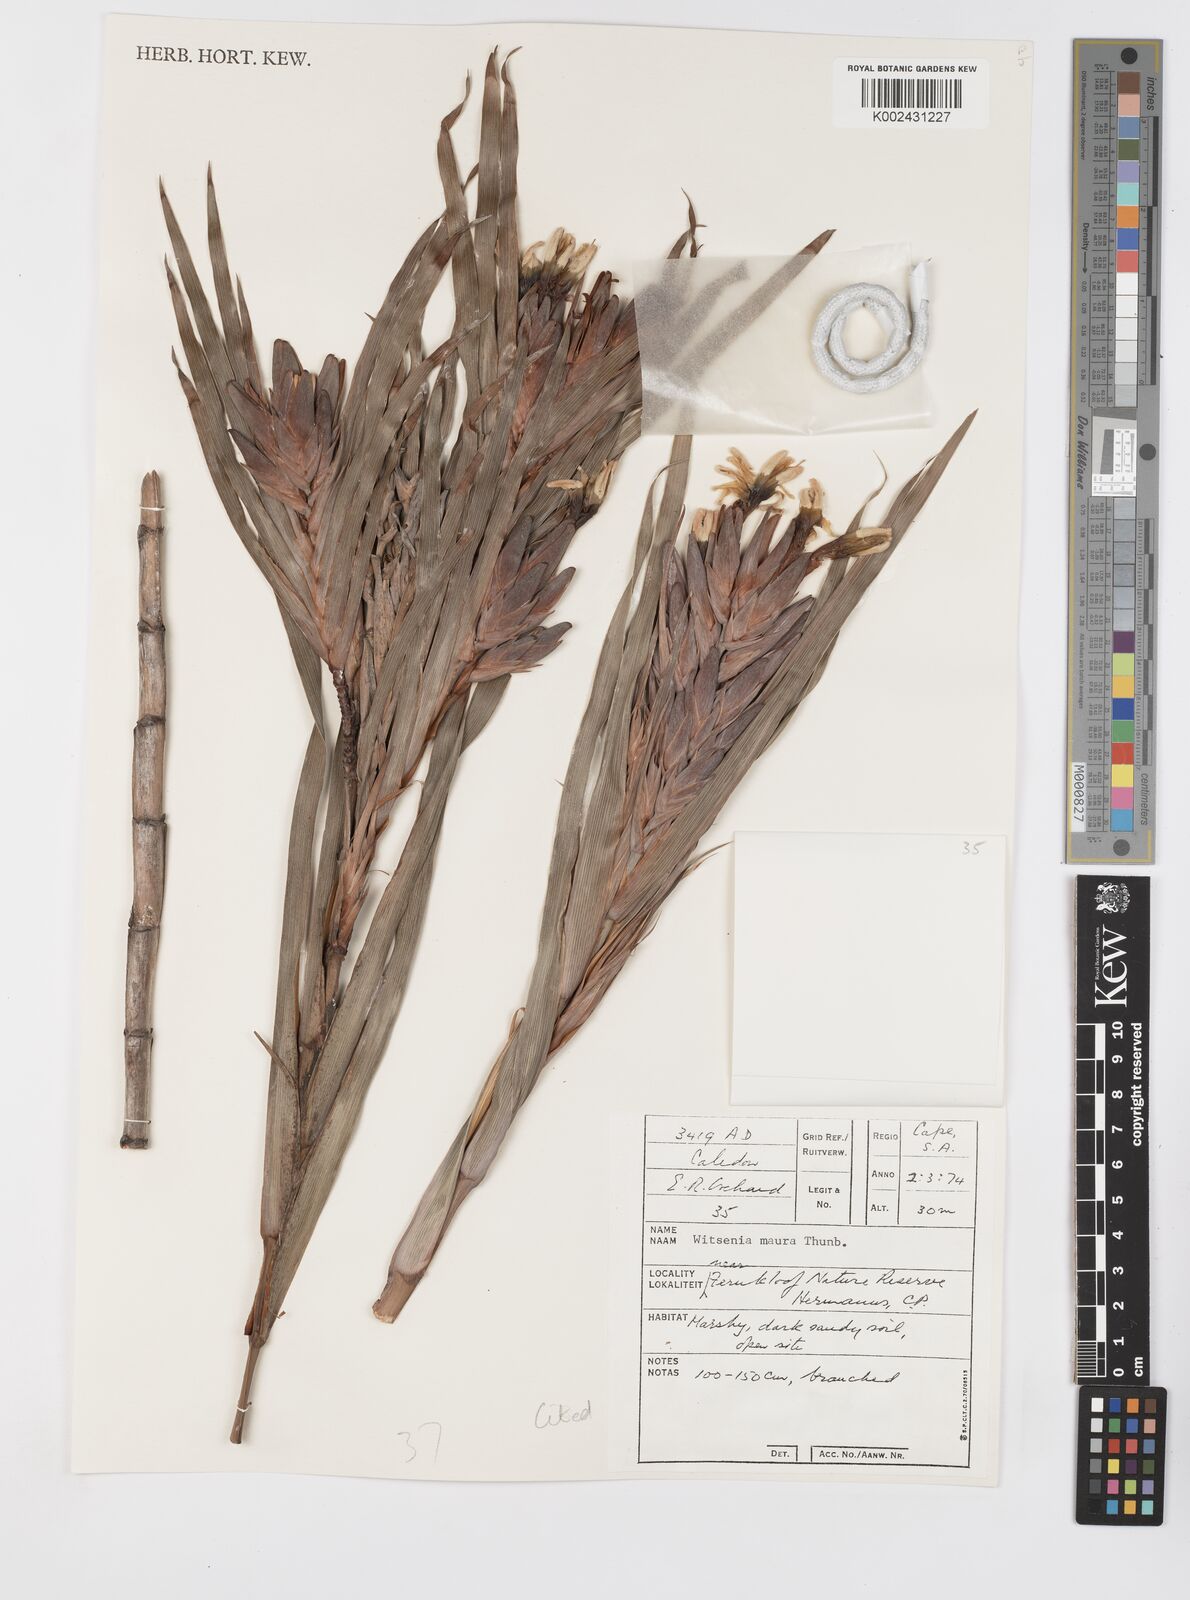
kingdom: Plantae
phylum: Tracheophyta
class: Liliopsida
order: Asparagales
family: Iridaceae
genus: Witsenia
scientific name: Witsenia maura
